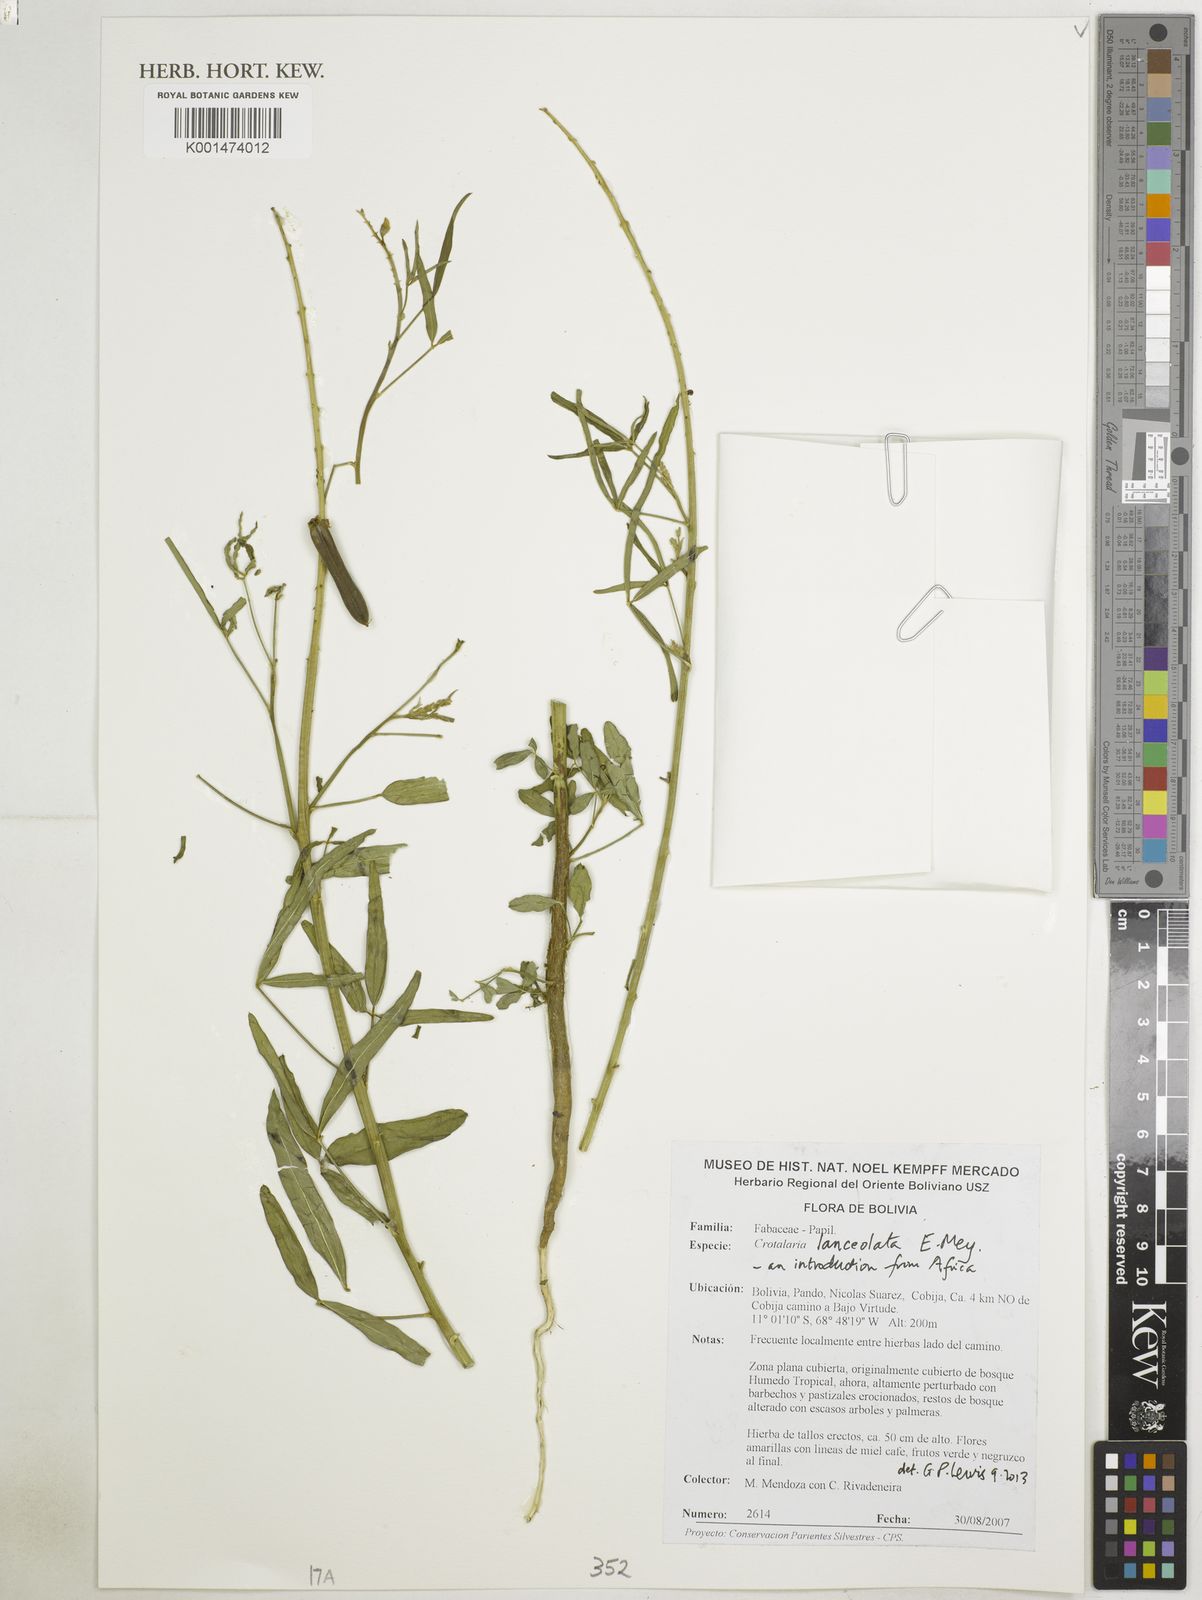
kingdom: Plantae
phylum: Tracheophyta
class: Magnoliopsida
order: Fabales
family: Fabaceae
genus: Crotalaria
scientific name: Crotalaria lanceolata
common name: Lanceleaf rattlebox
